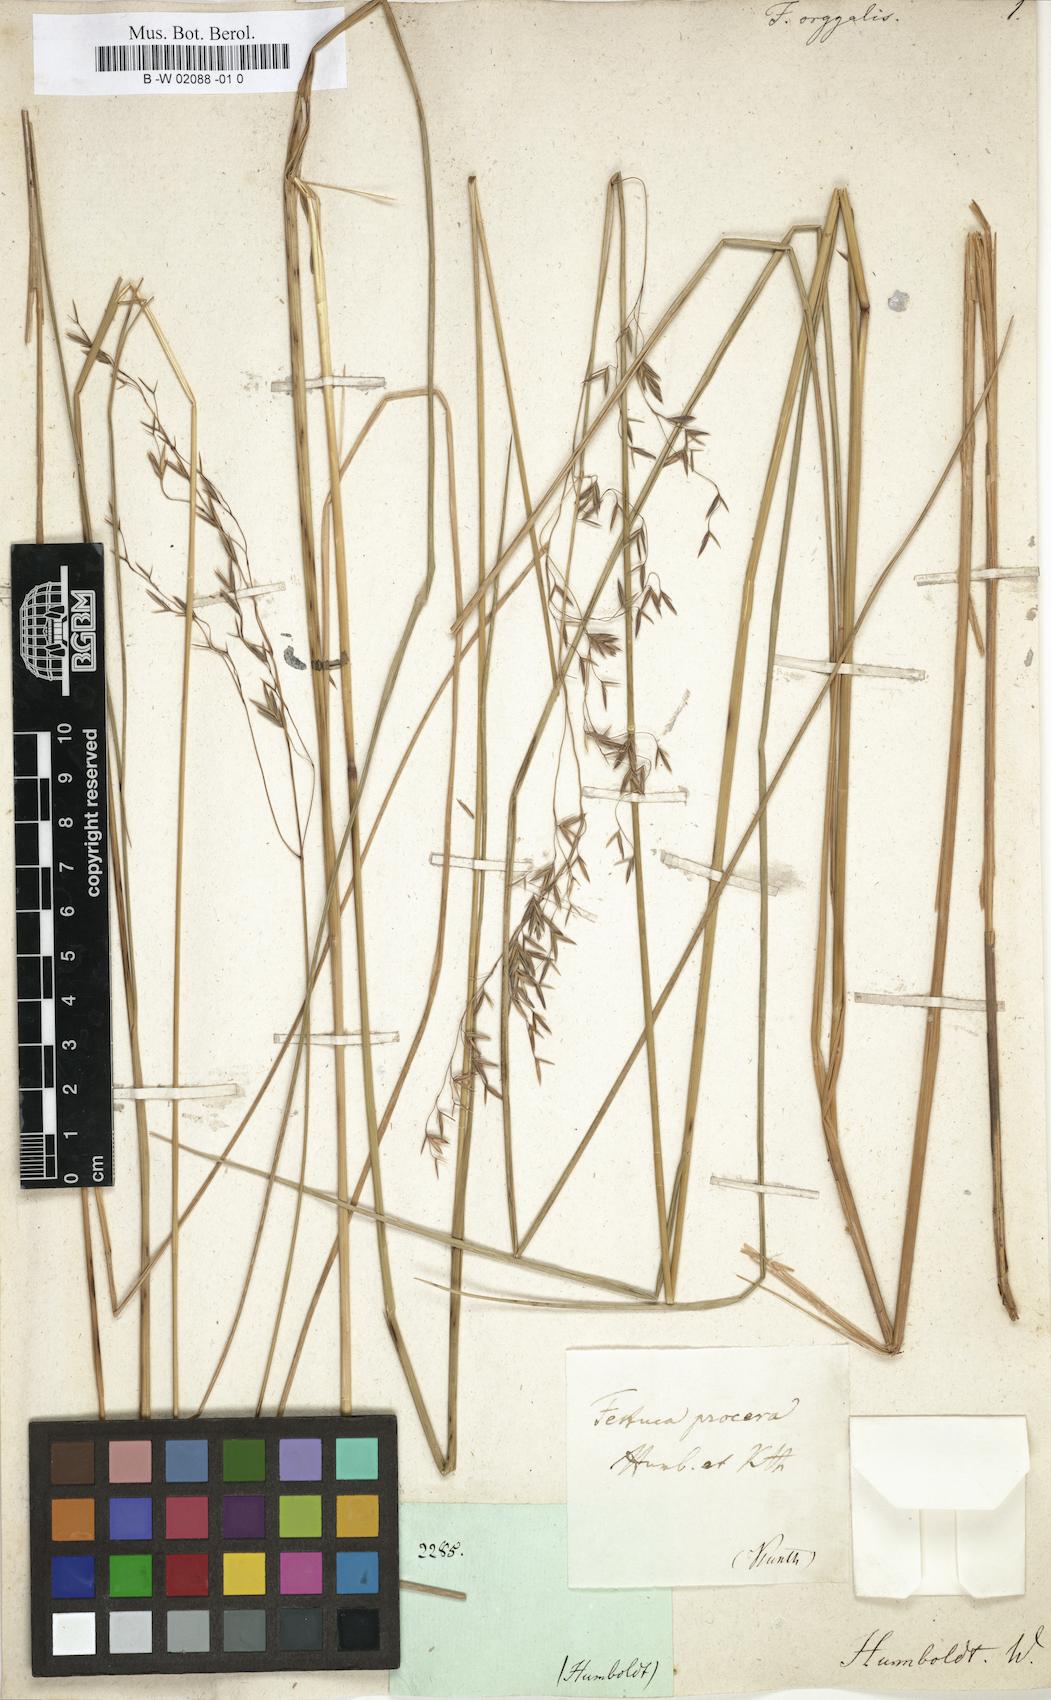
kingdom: Plantae
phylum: Tracheophyta
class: Liliopsida
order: Poales
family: Poaceae
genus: Festuca
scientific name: Festuca procera
